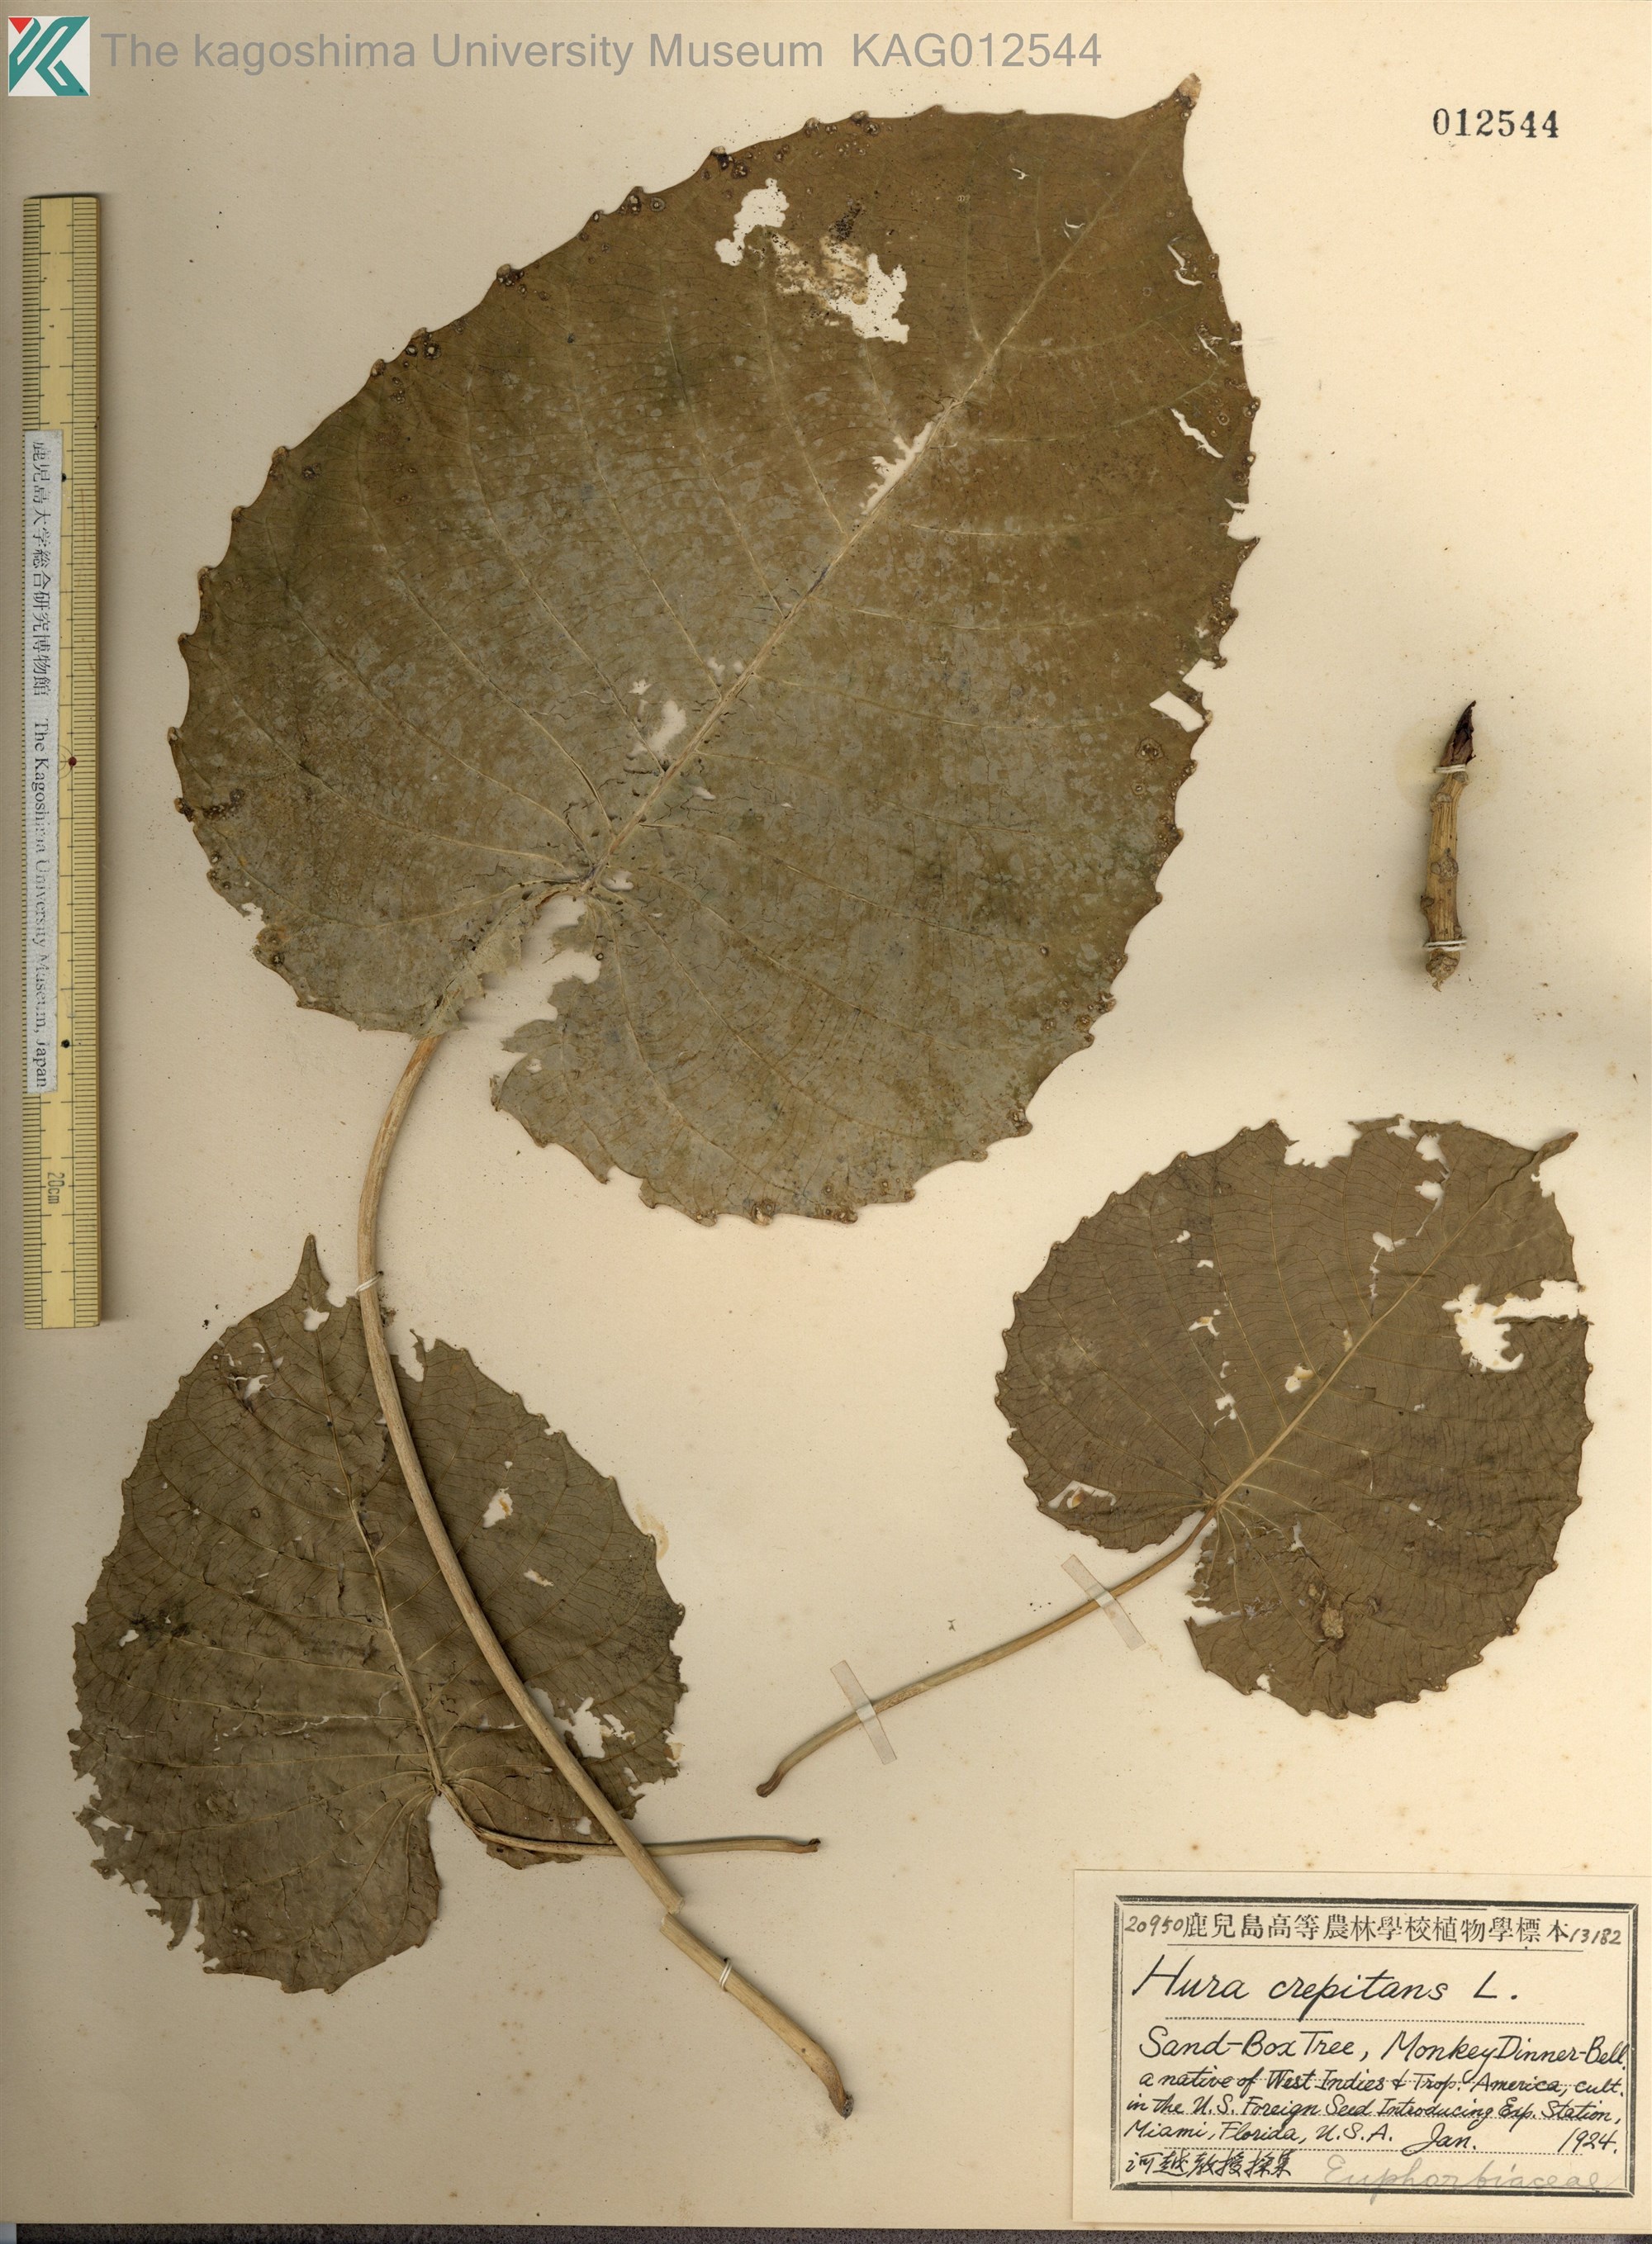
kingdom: Plantae
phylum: Tracheophyta
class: Magnoliopsida
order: Malpighiales
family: Euphorbiaceae
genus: Hura
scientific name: Hura crepitans
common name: Sandboxtree
